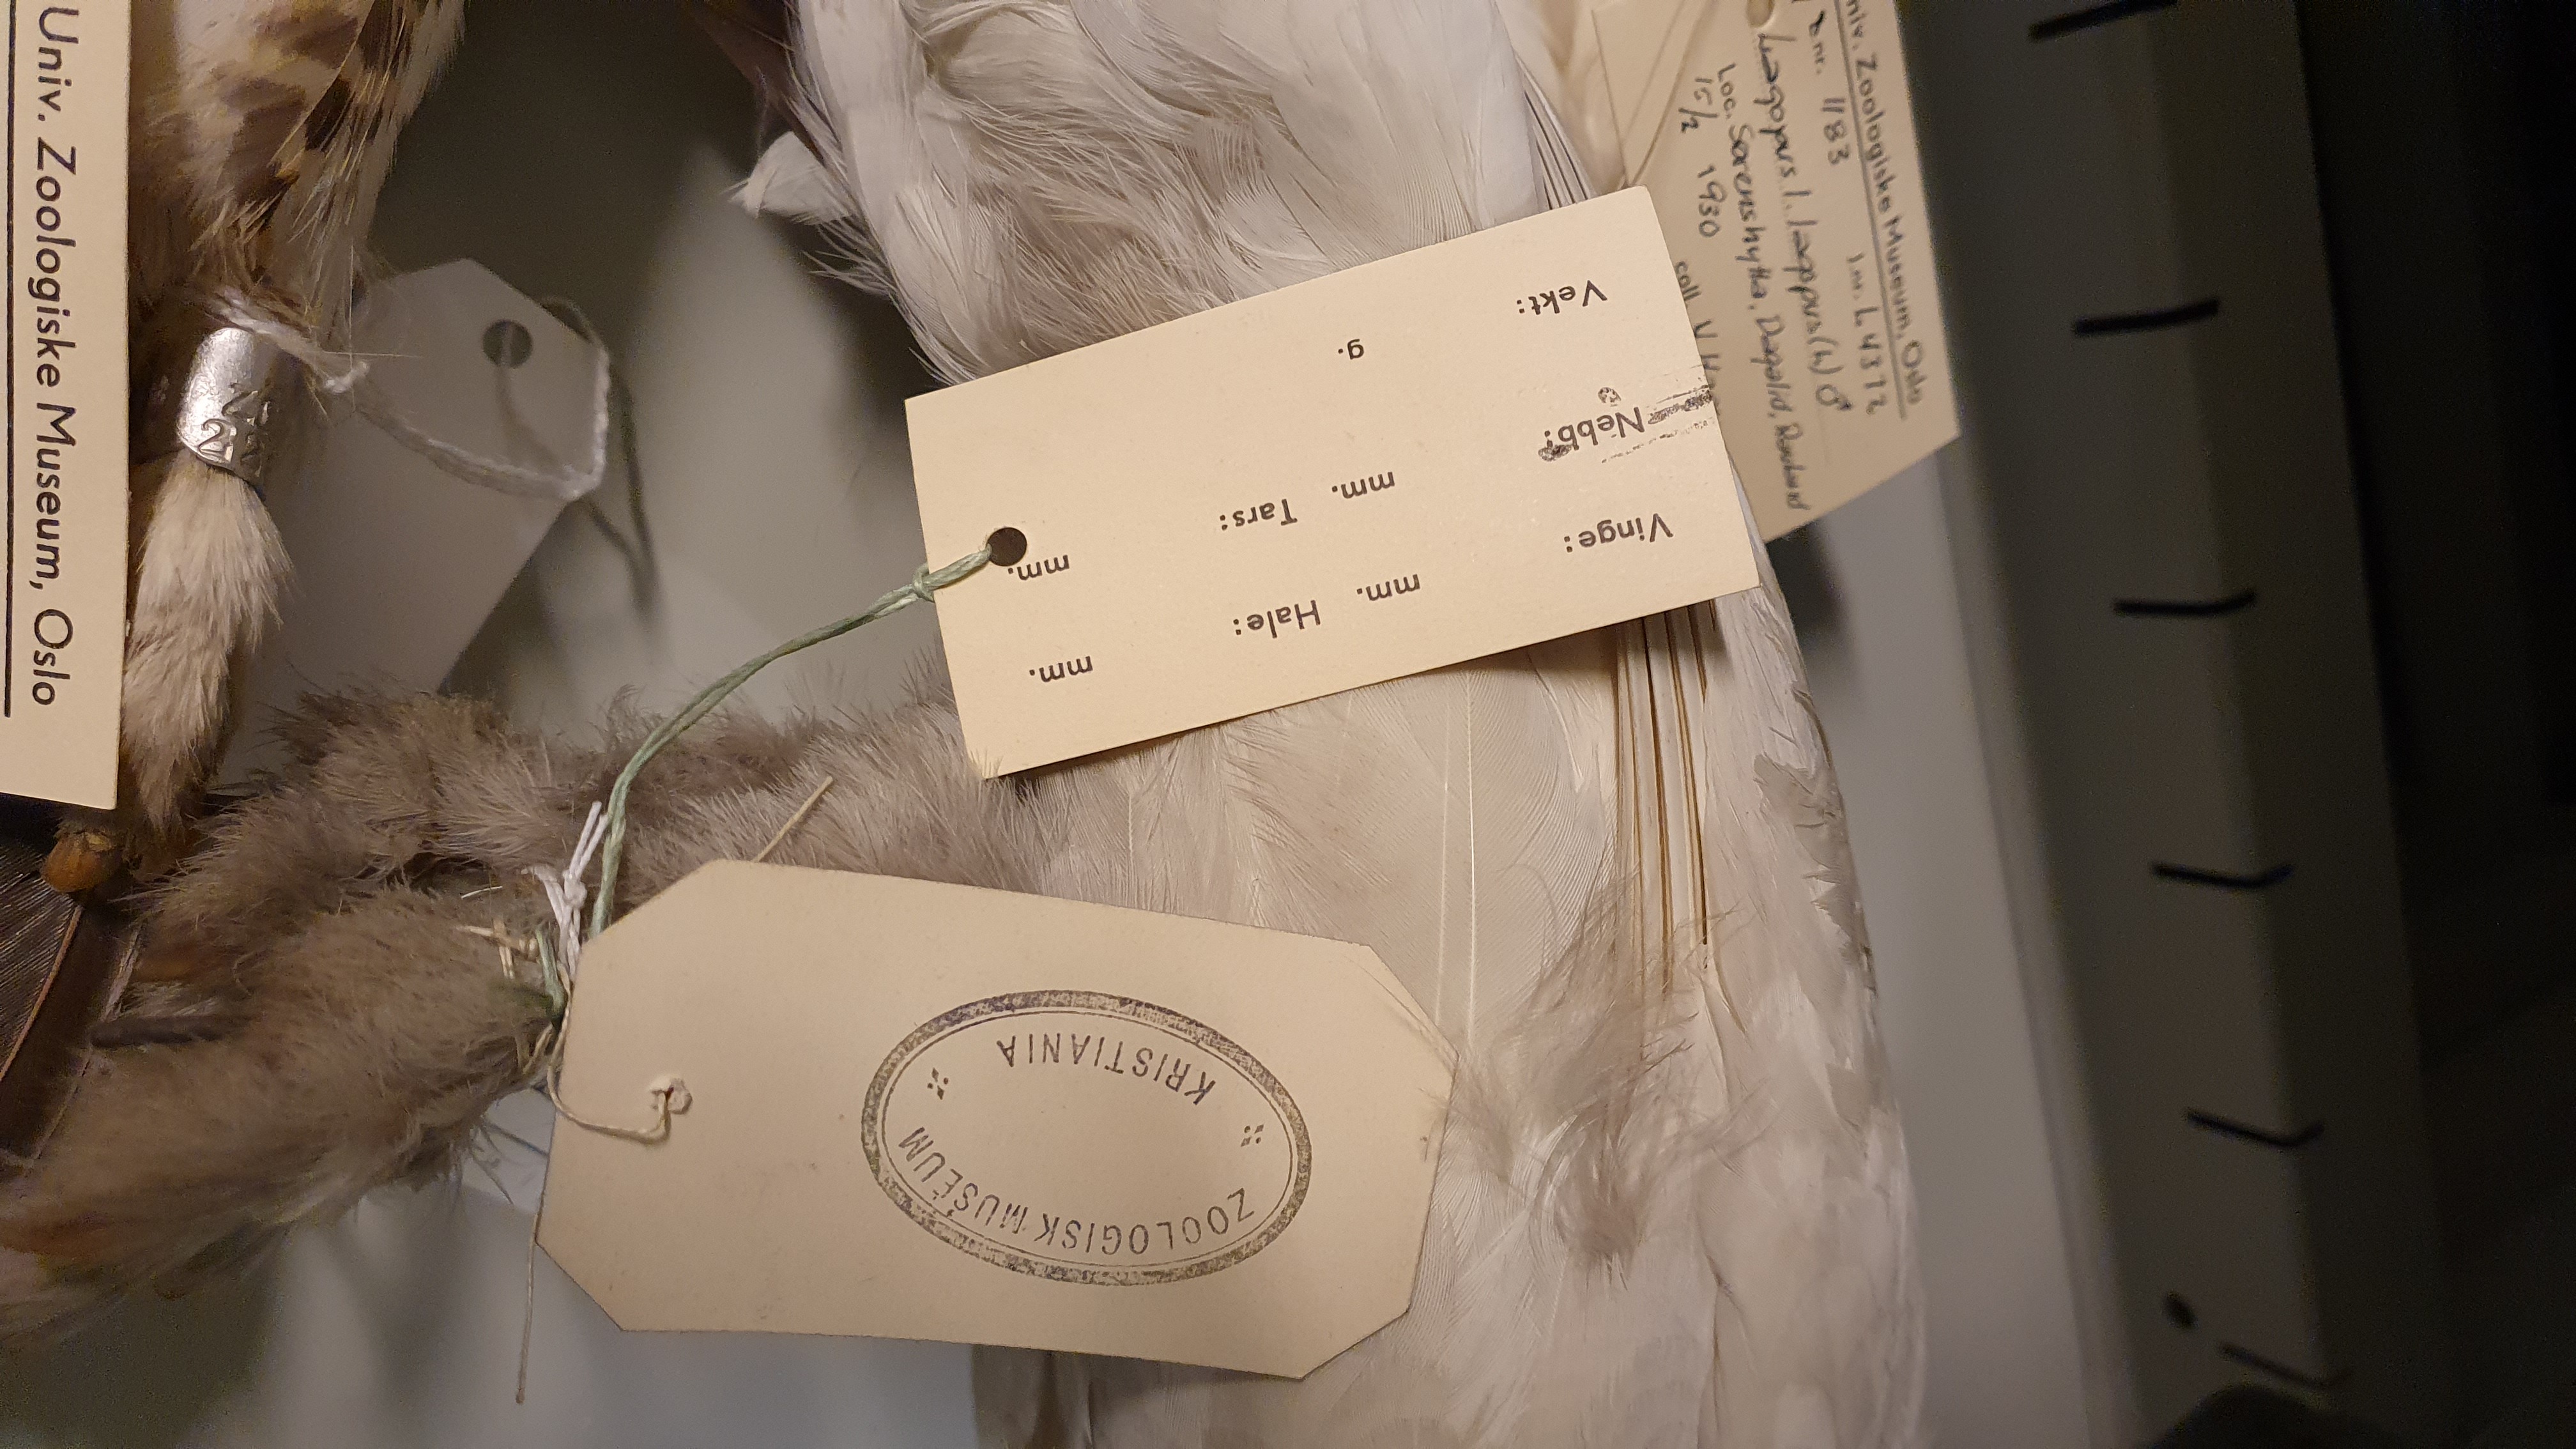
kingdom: Animalia
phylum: Chordata
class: Aves
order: Galliformes
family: Phasianidae
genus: Lagopus
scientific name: Lagopus lagopus
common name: Willow ptarmigan
